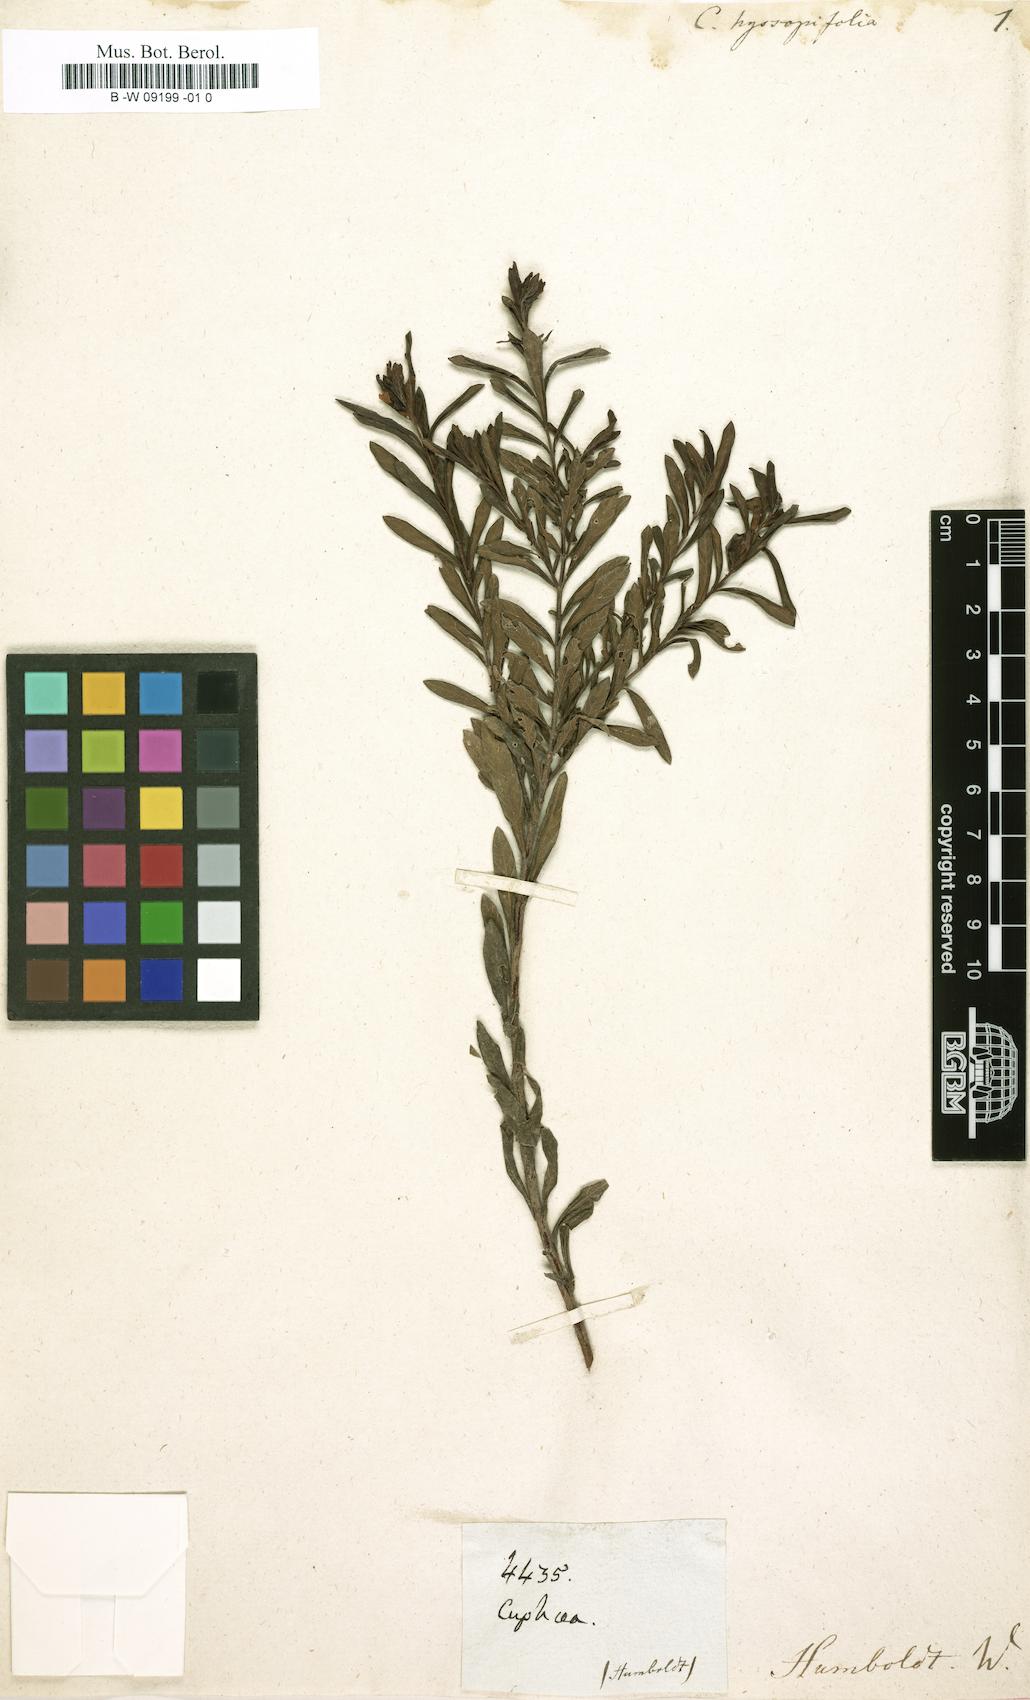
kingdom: Plantae
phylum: Tracheophyta
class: Magnoliopsida
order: Myrtales
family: Lythraceae
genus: Cuphea
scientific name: Cuphea hyssopifolia
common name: False heather
